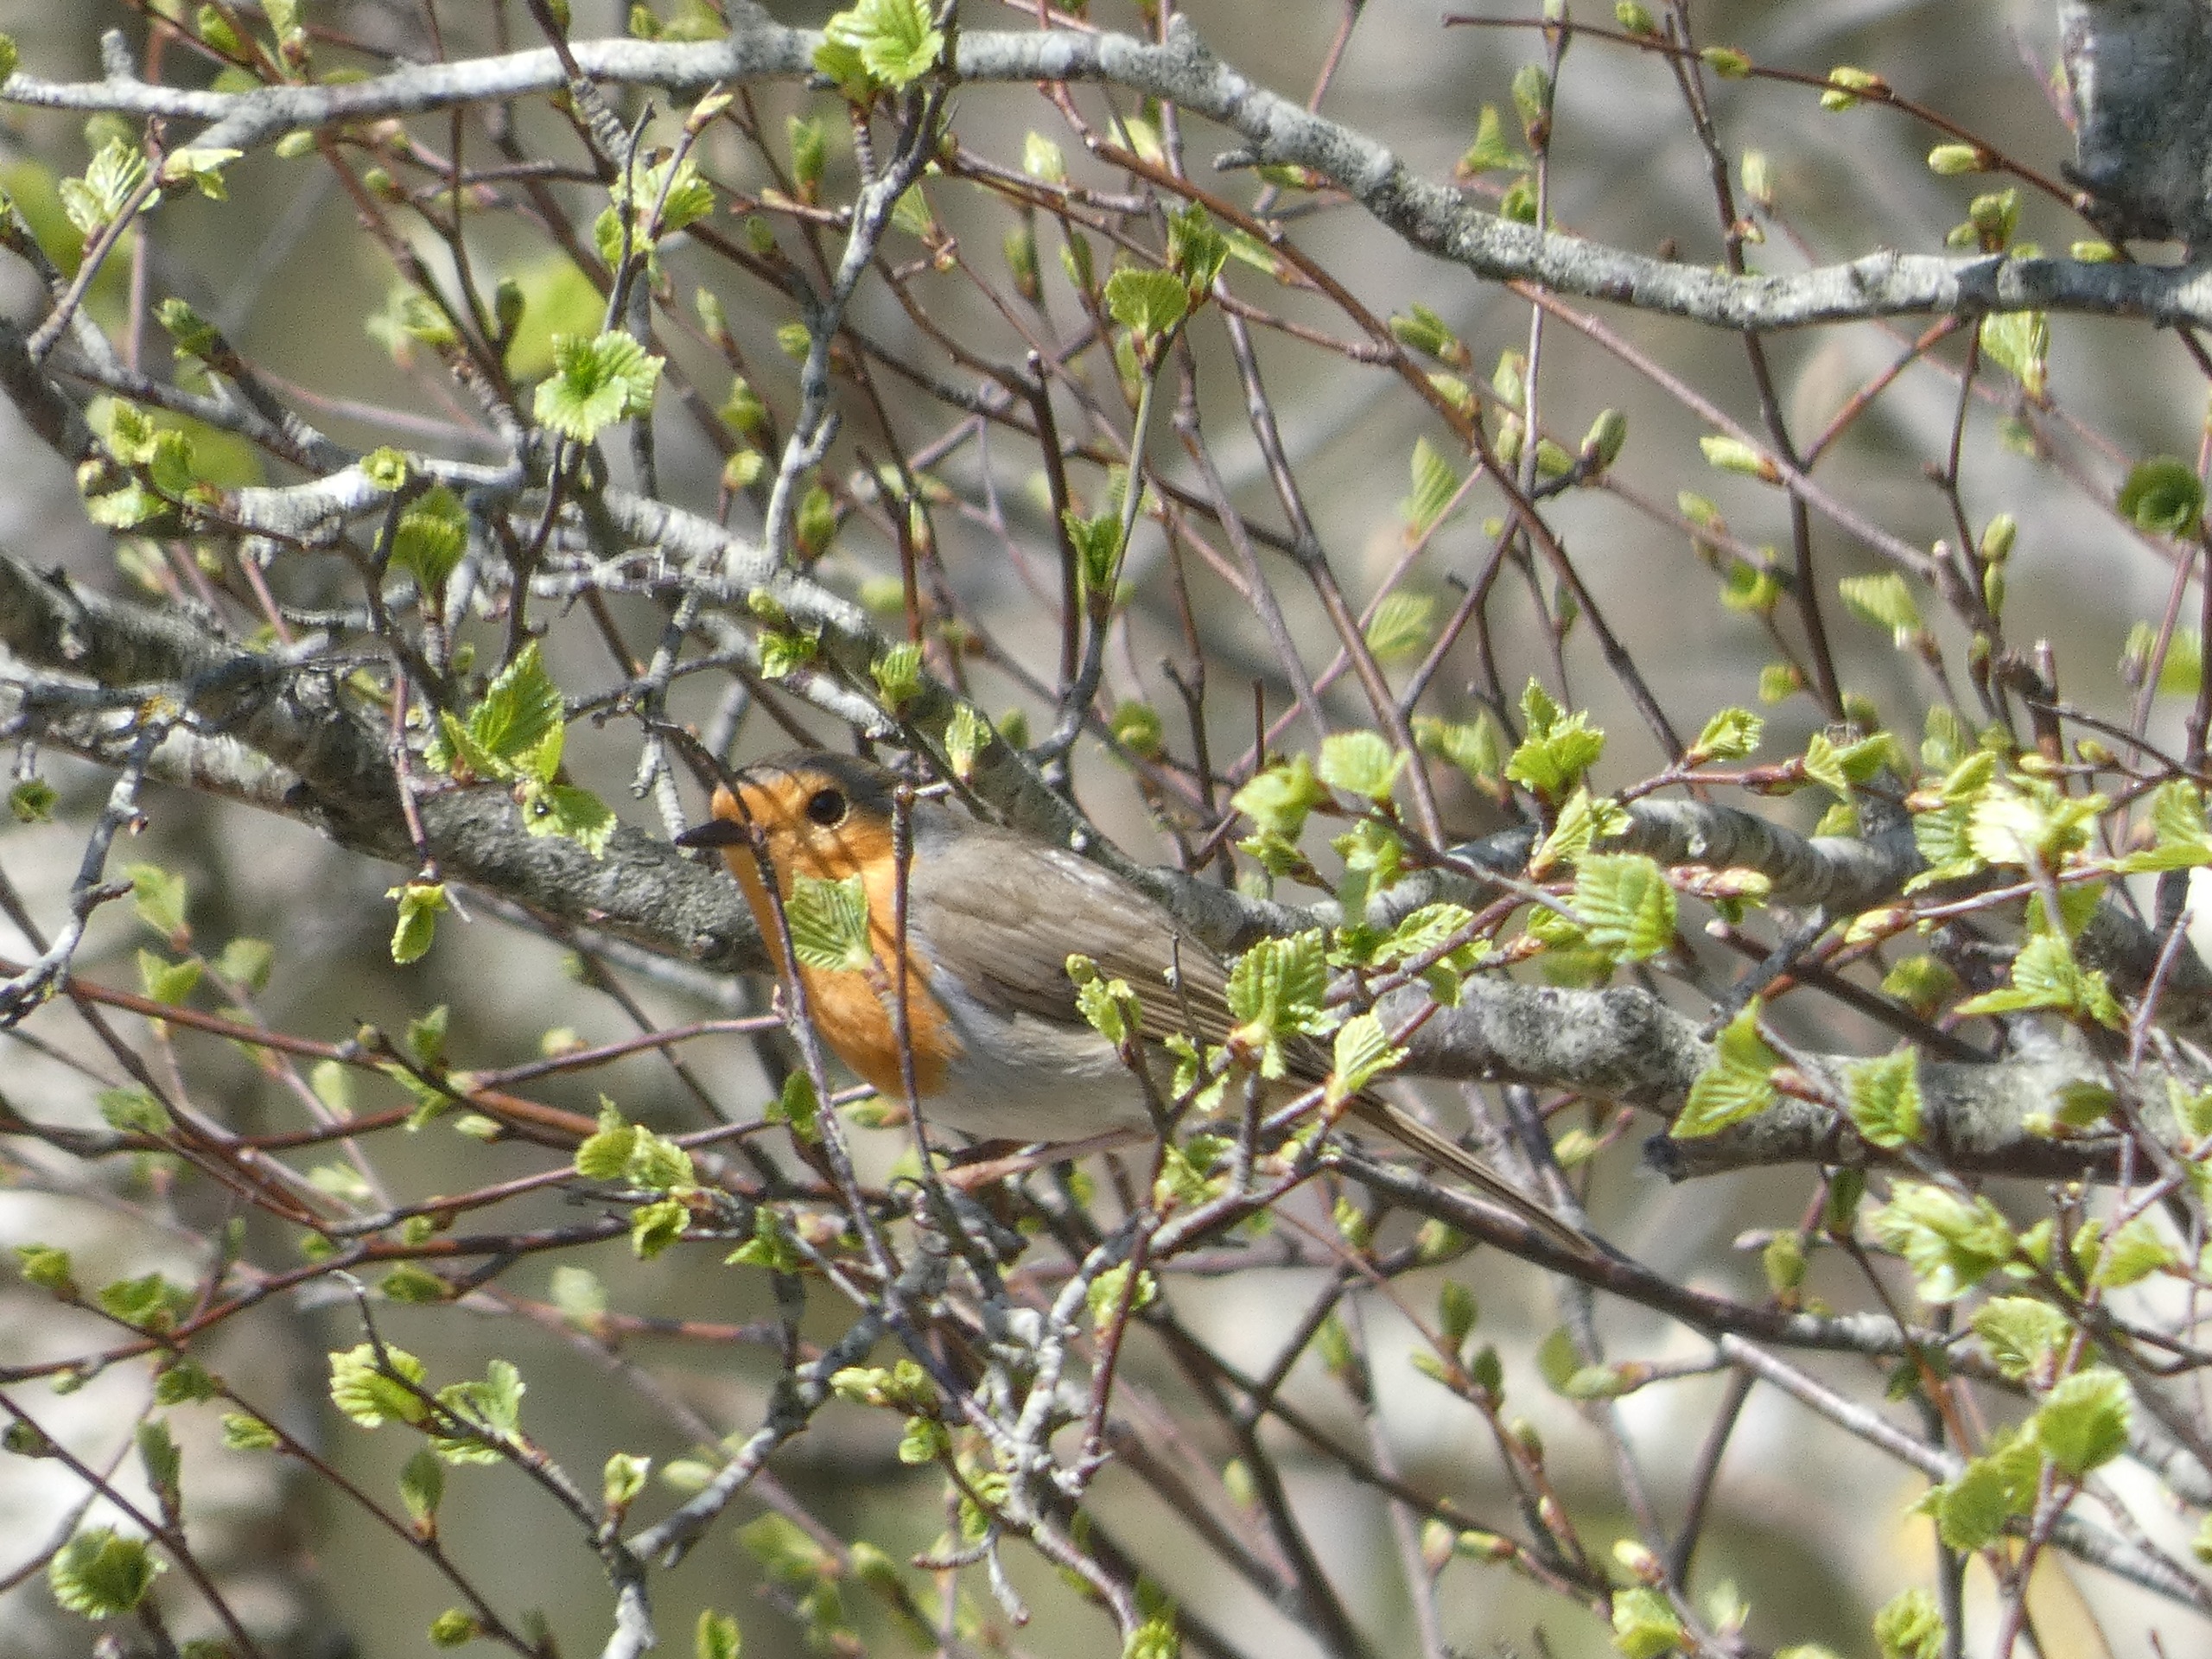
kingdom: Animalia
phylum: Chordata
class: Aves
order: Passeriformes
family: Muscicapidae
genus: Erithacus
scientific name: Erithacus rubecula
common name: Rødhals/rødkælk
